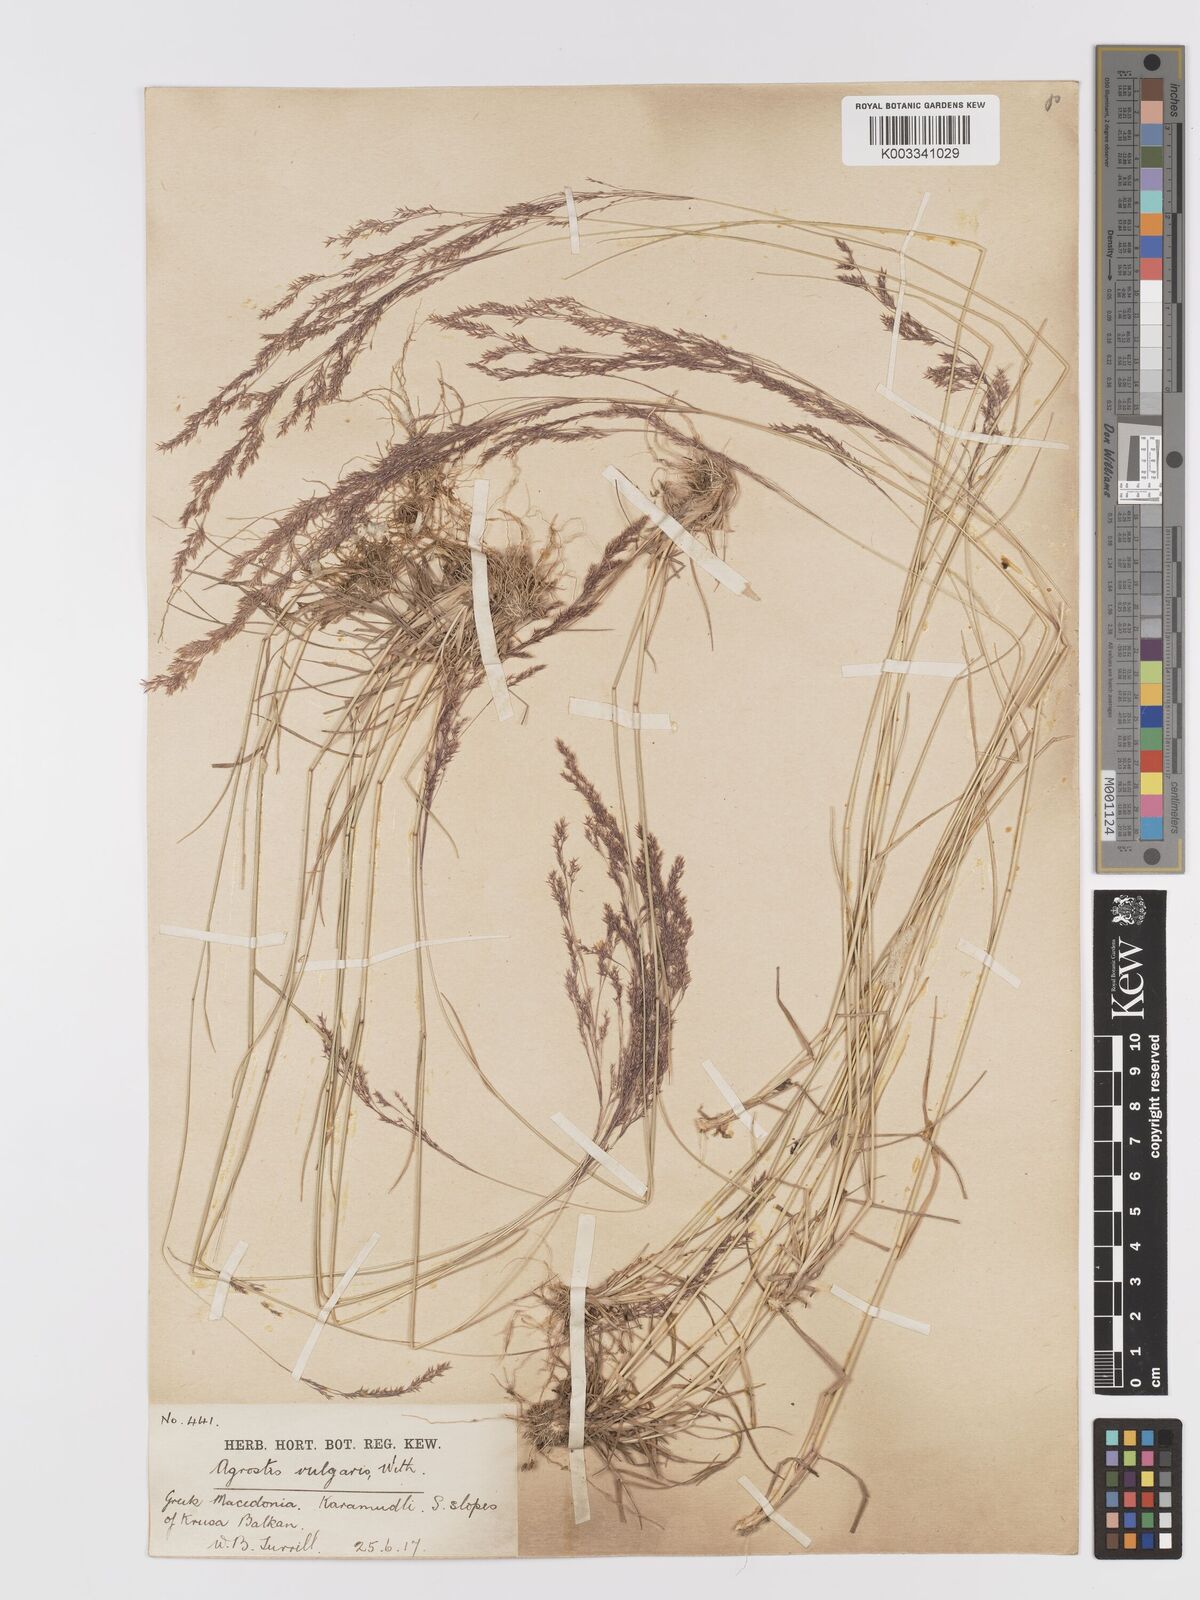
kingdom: Plantae
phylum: Tracheophyta
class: Liliopsida
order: Poales
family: Poaceae
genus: Agrostis
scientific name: Agrostis capillaris
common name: Colonial bentgrass
